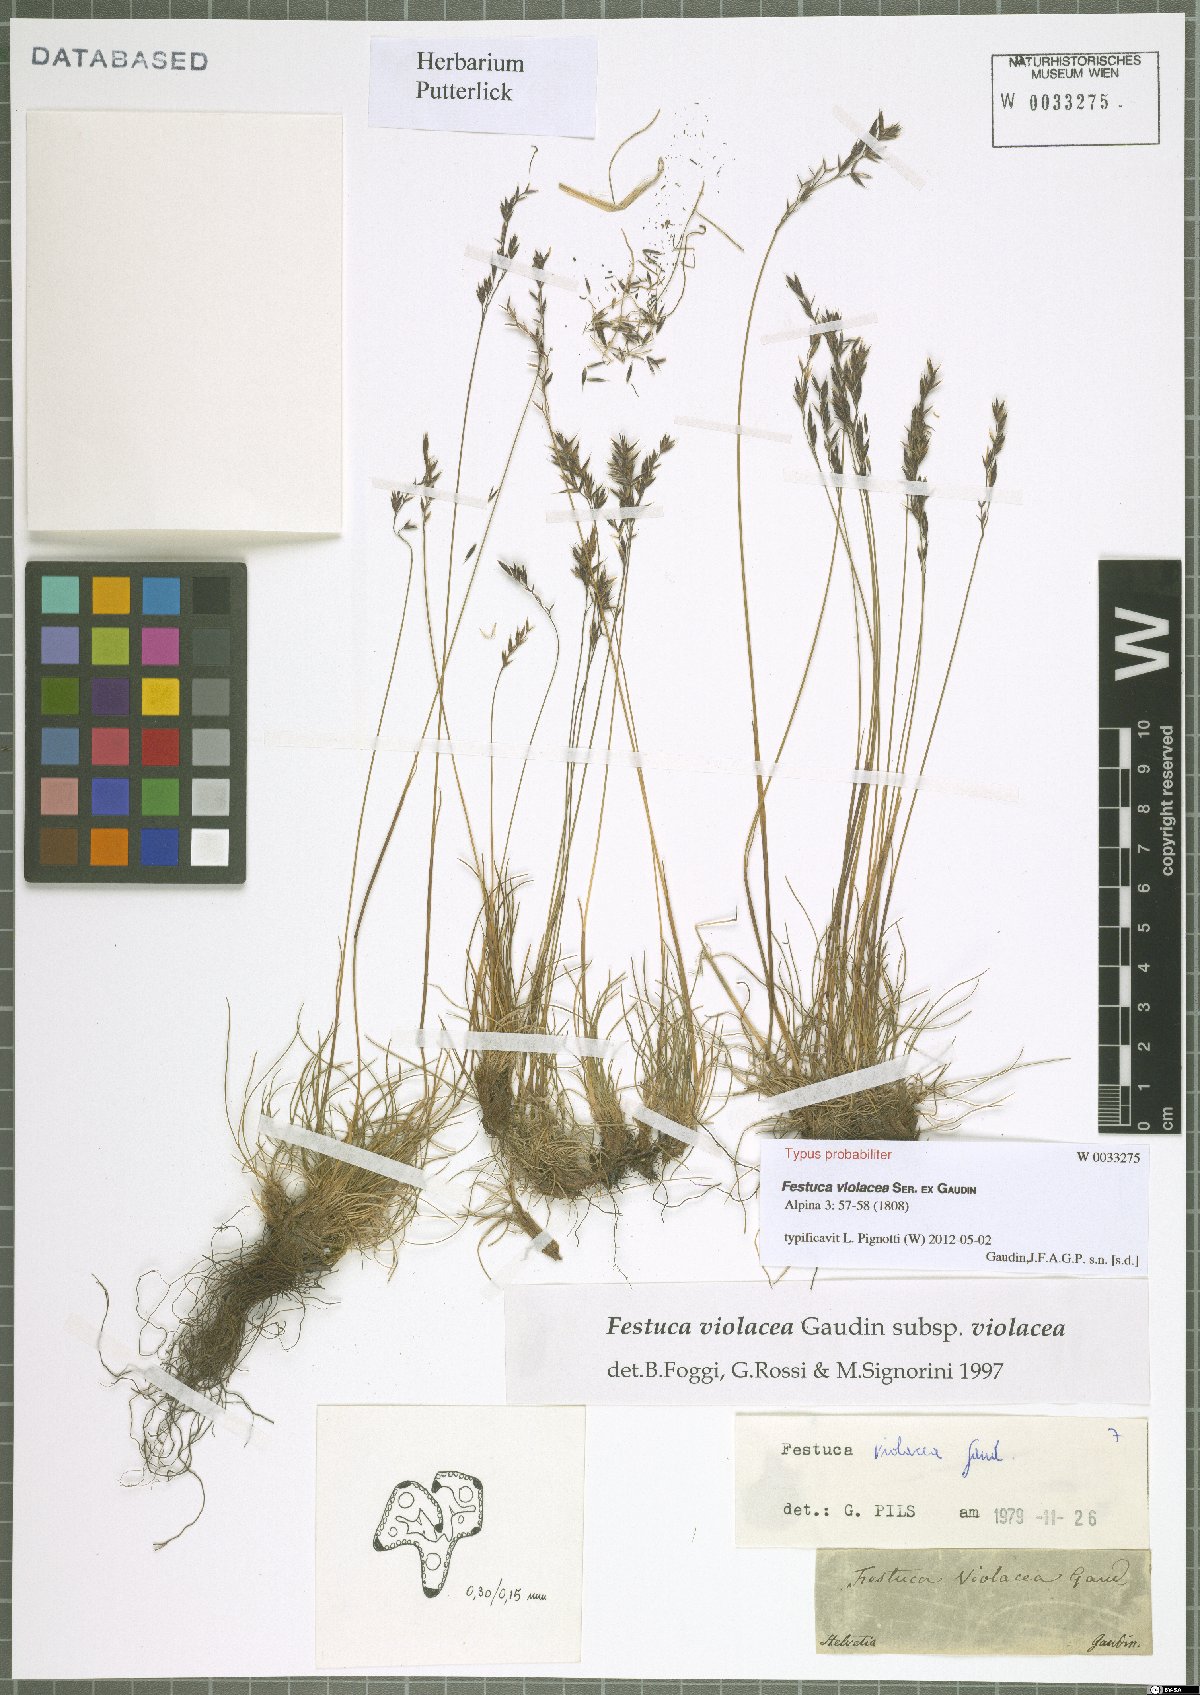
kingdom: Plantae
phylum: Tracheophyta
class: Liliopsida
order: Poales
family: Poaceae
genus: Festuca
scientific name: Festuca violacea
